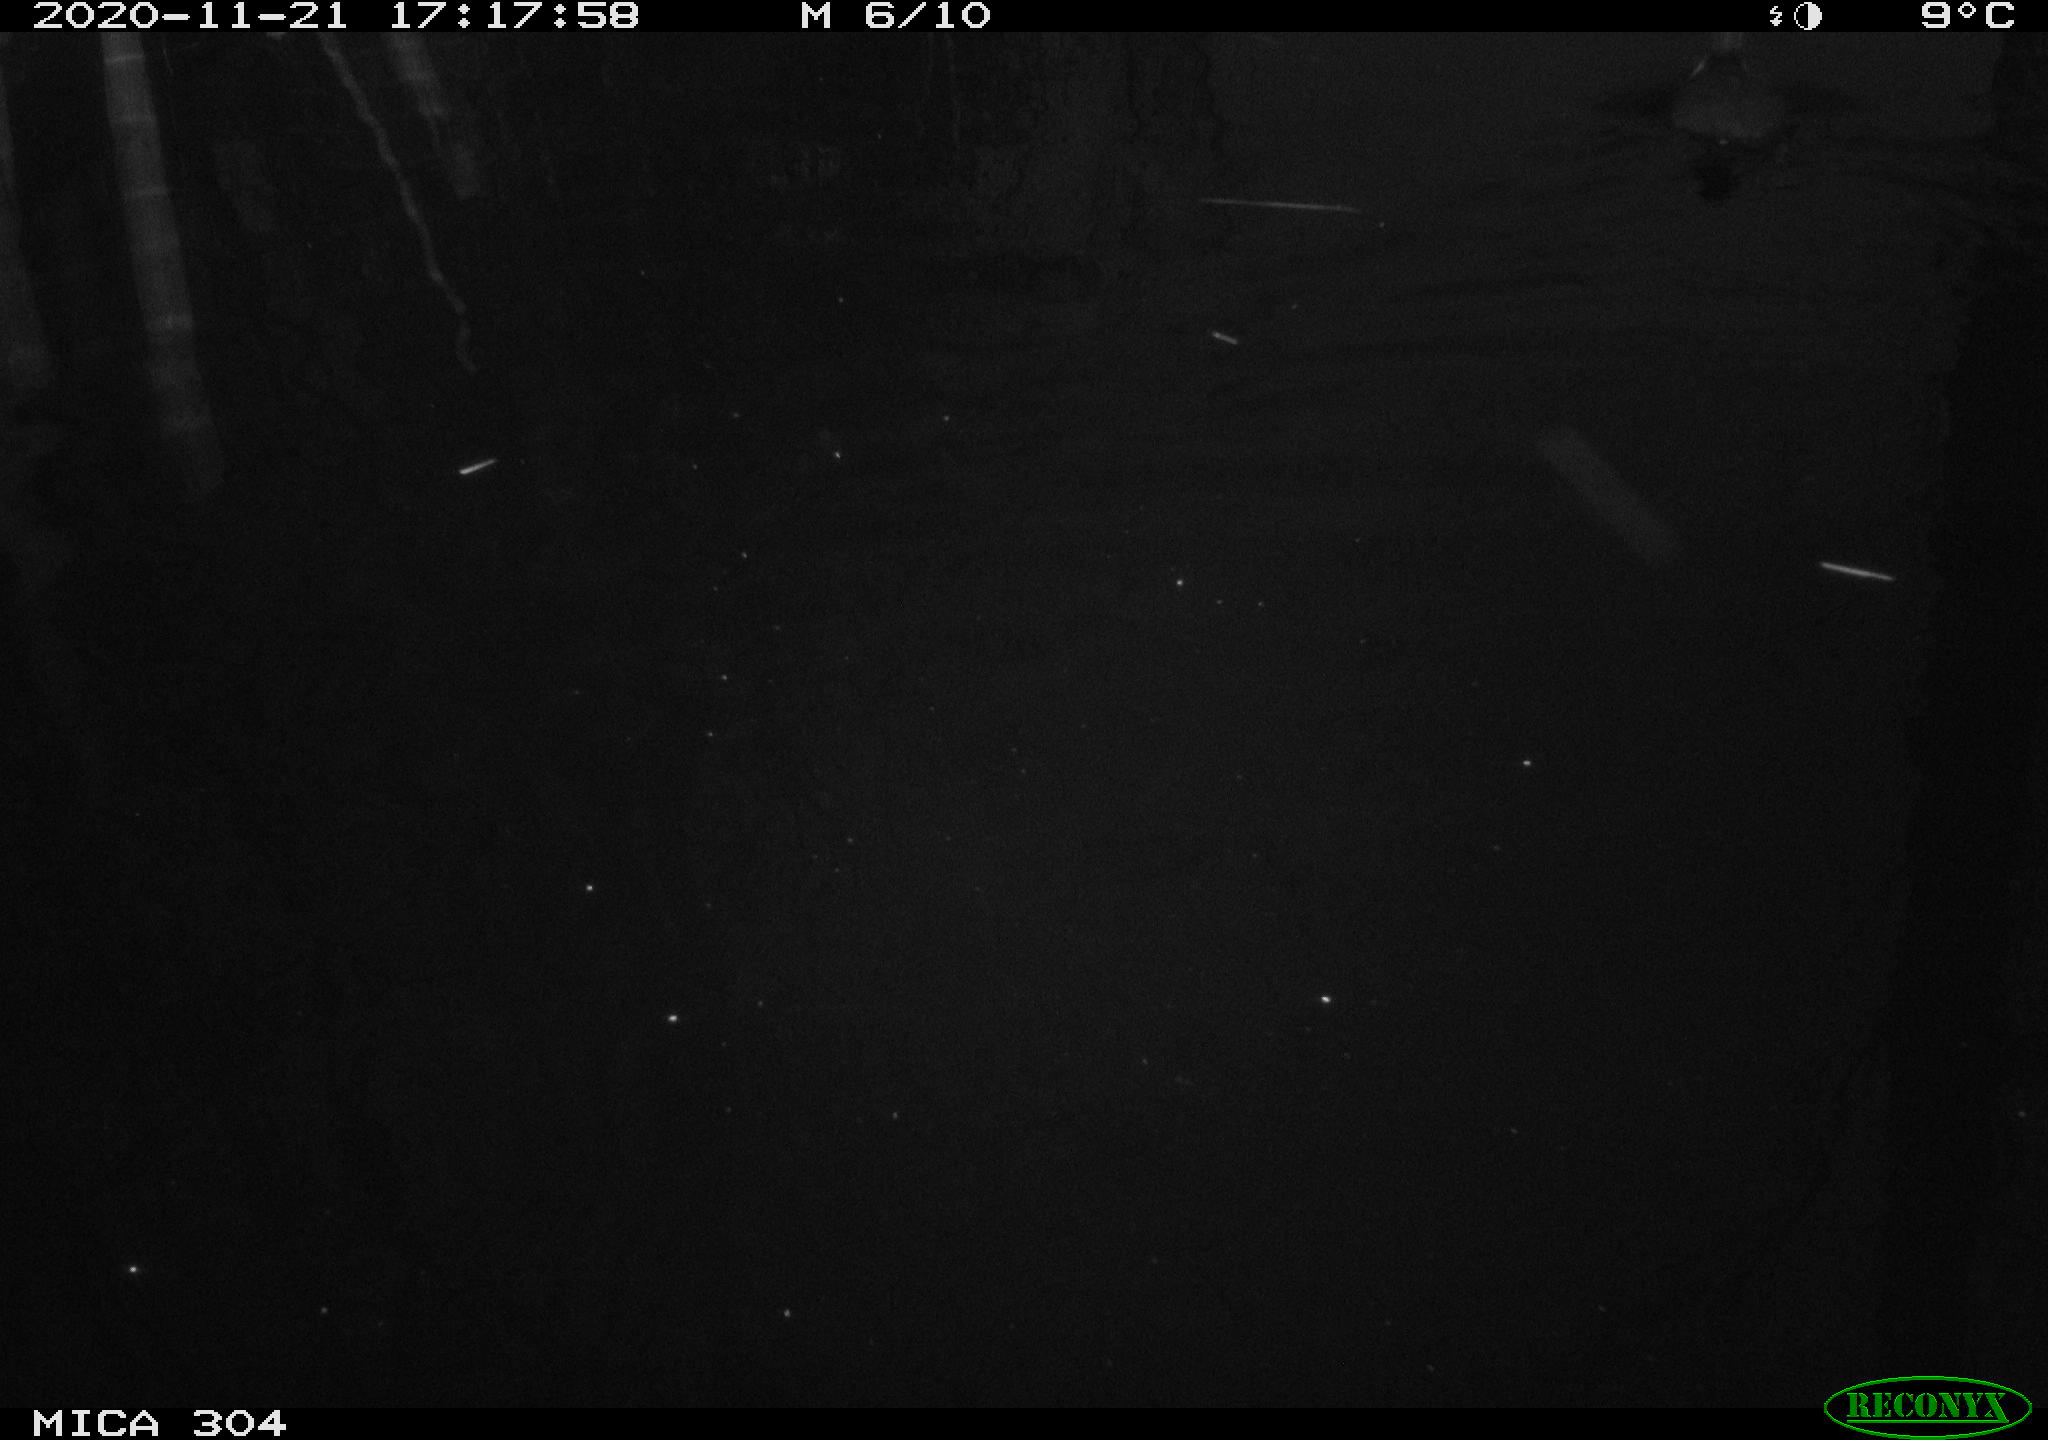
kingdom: Animalia
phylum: Chordata
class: Aves
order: Gruiformes
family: Rallidae
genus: Fulica
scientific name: Fulica atra
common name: Eurasian coot
